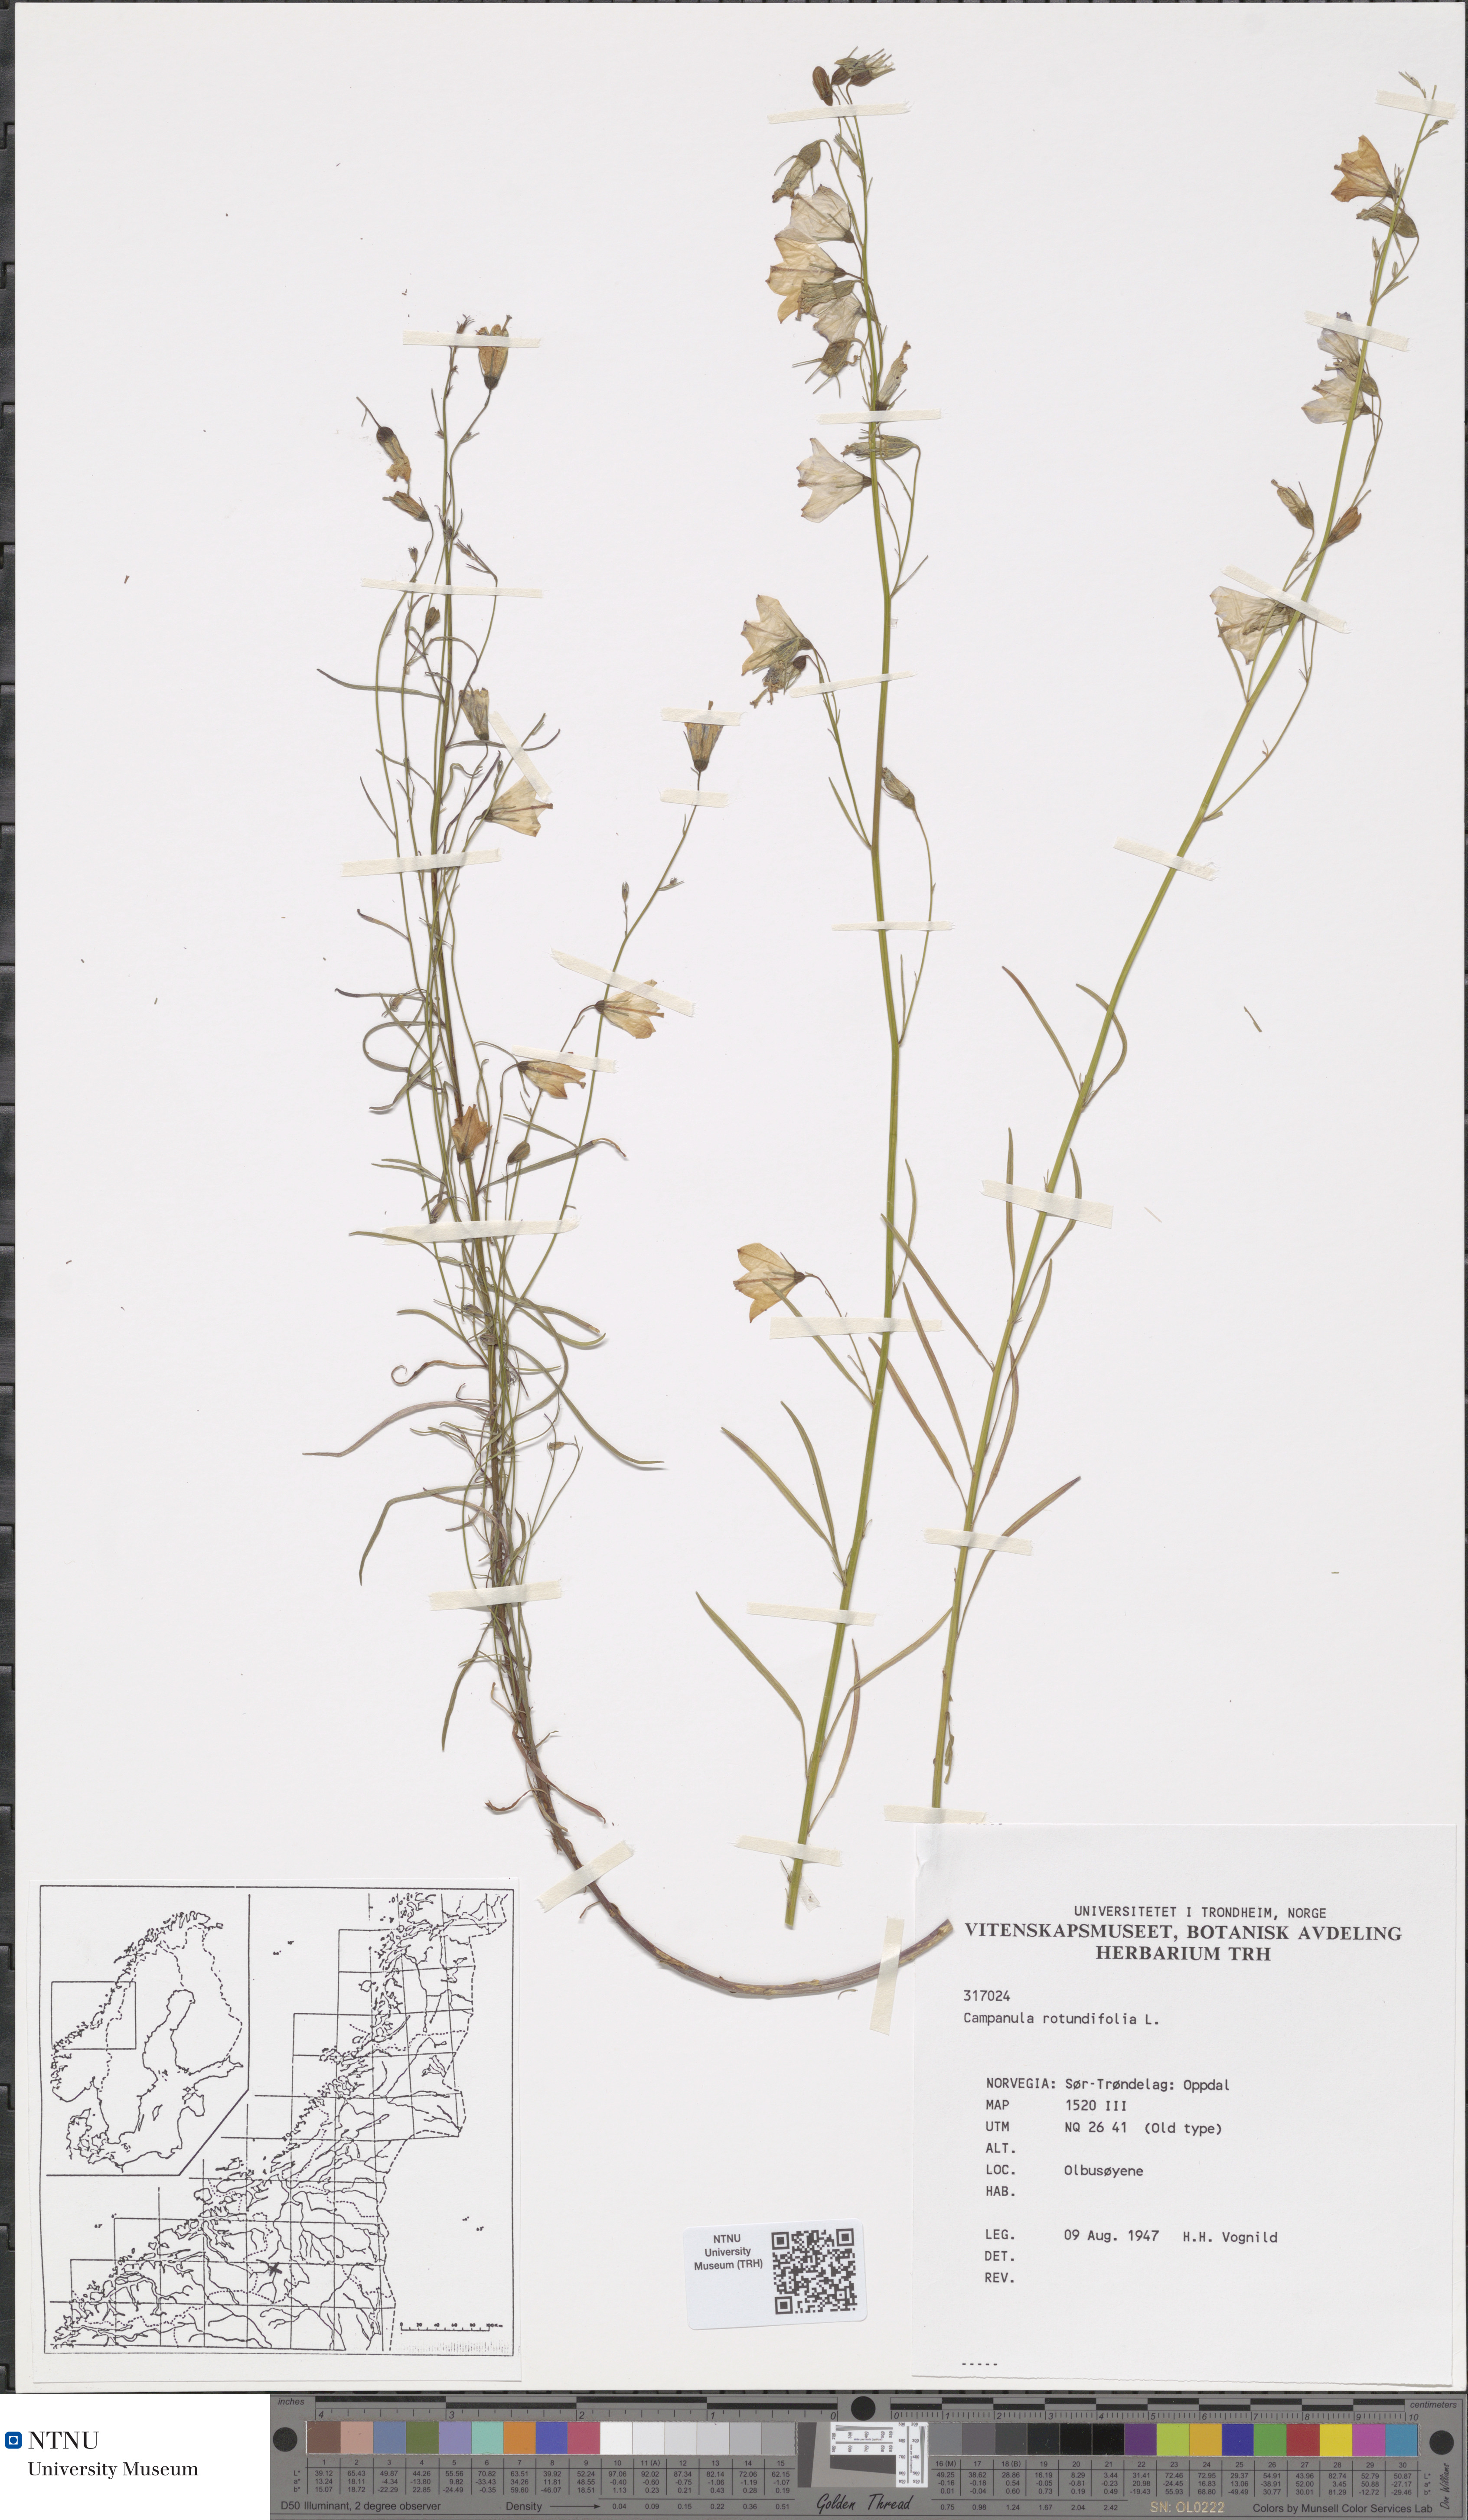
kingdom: Plantae
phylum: Tracheophyta
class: Magnoliopsida
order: Asterales
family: Campanulaceae
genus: Campanula
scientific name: Campanula rotundifolia
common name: Harebell
